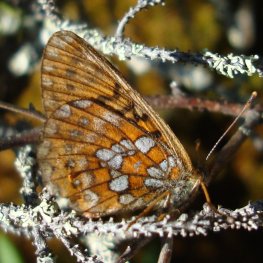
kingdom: Animalia
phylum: Arthropoda
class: Insecta
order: Lepidoptera
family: Nymphalidae
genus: Boloria
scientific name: Boloria eunomia
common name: Bog Fritillary
